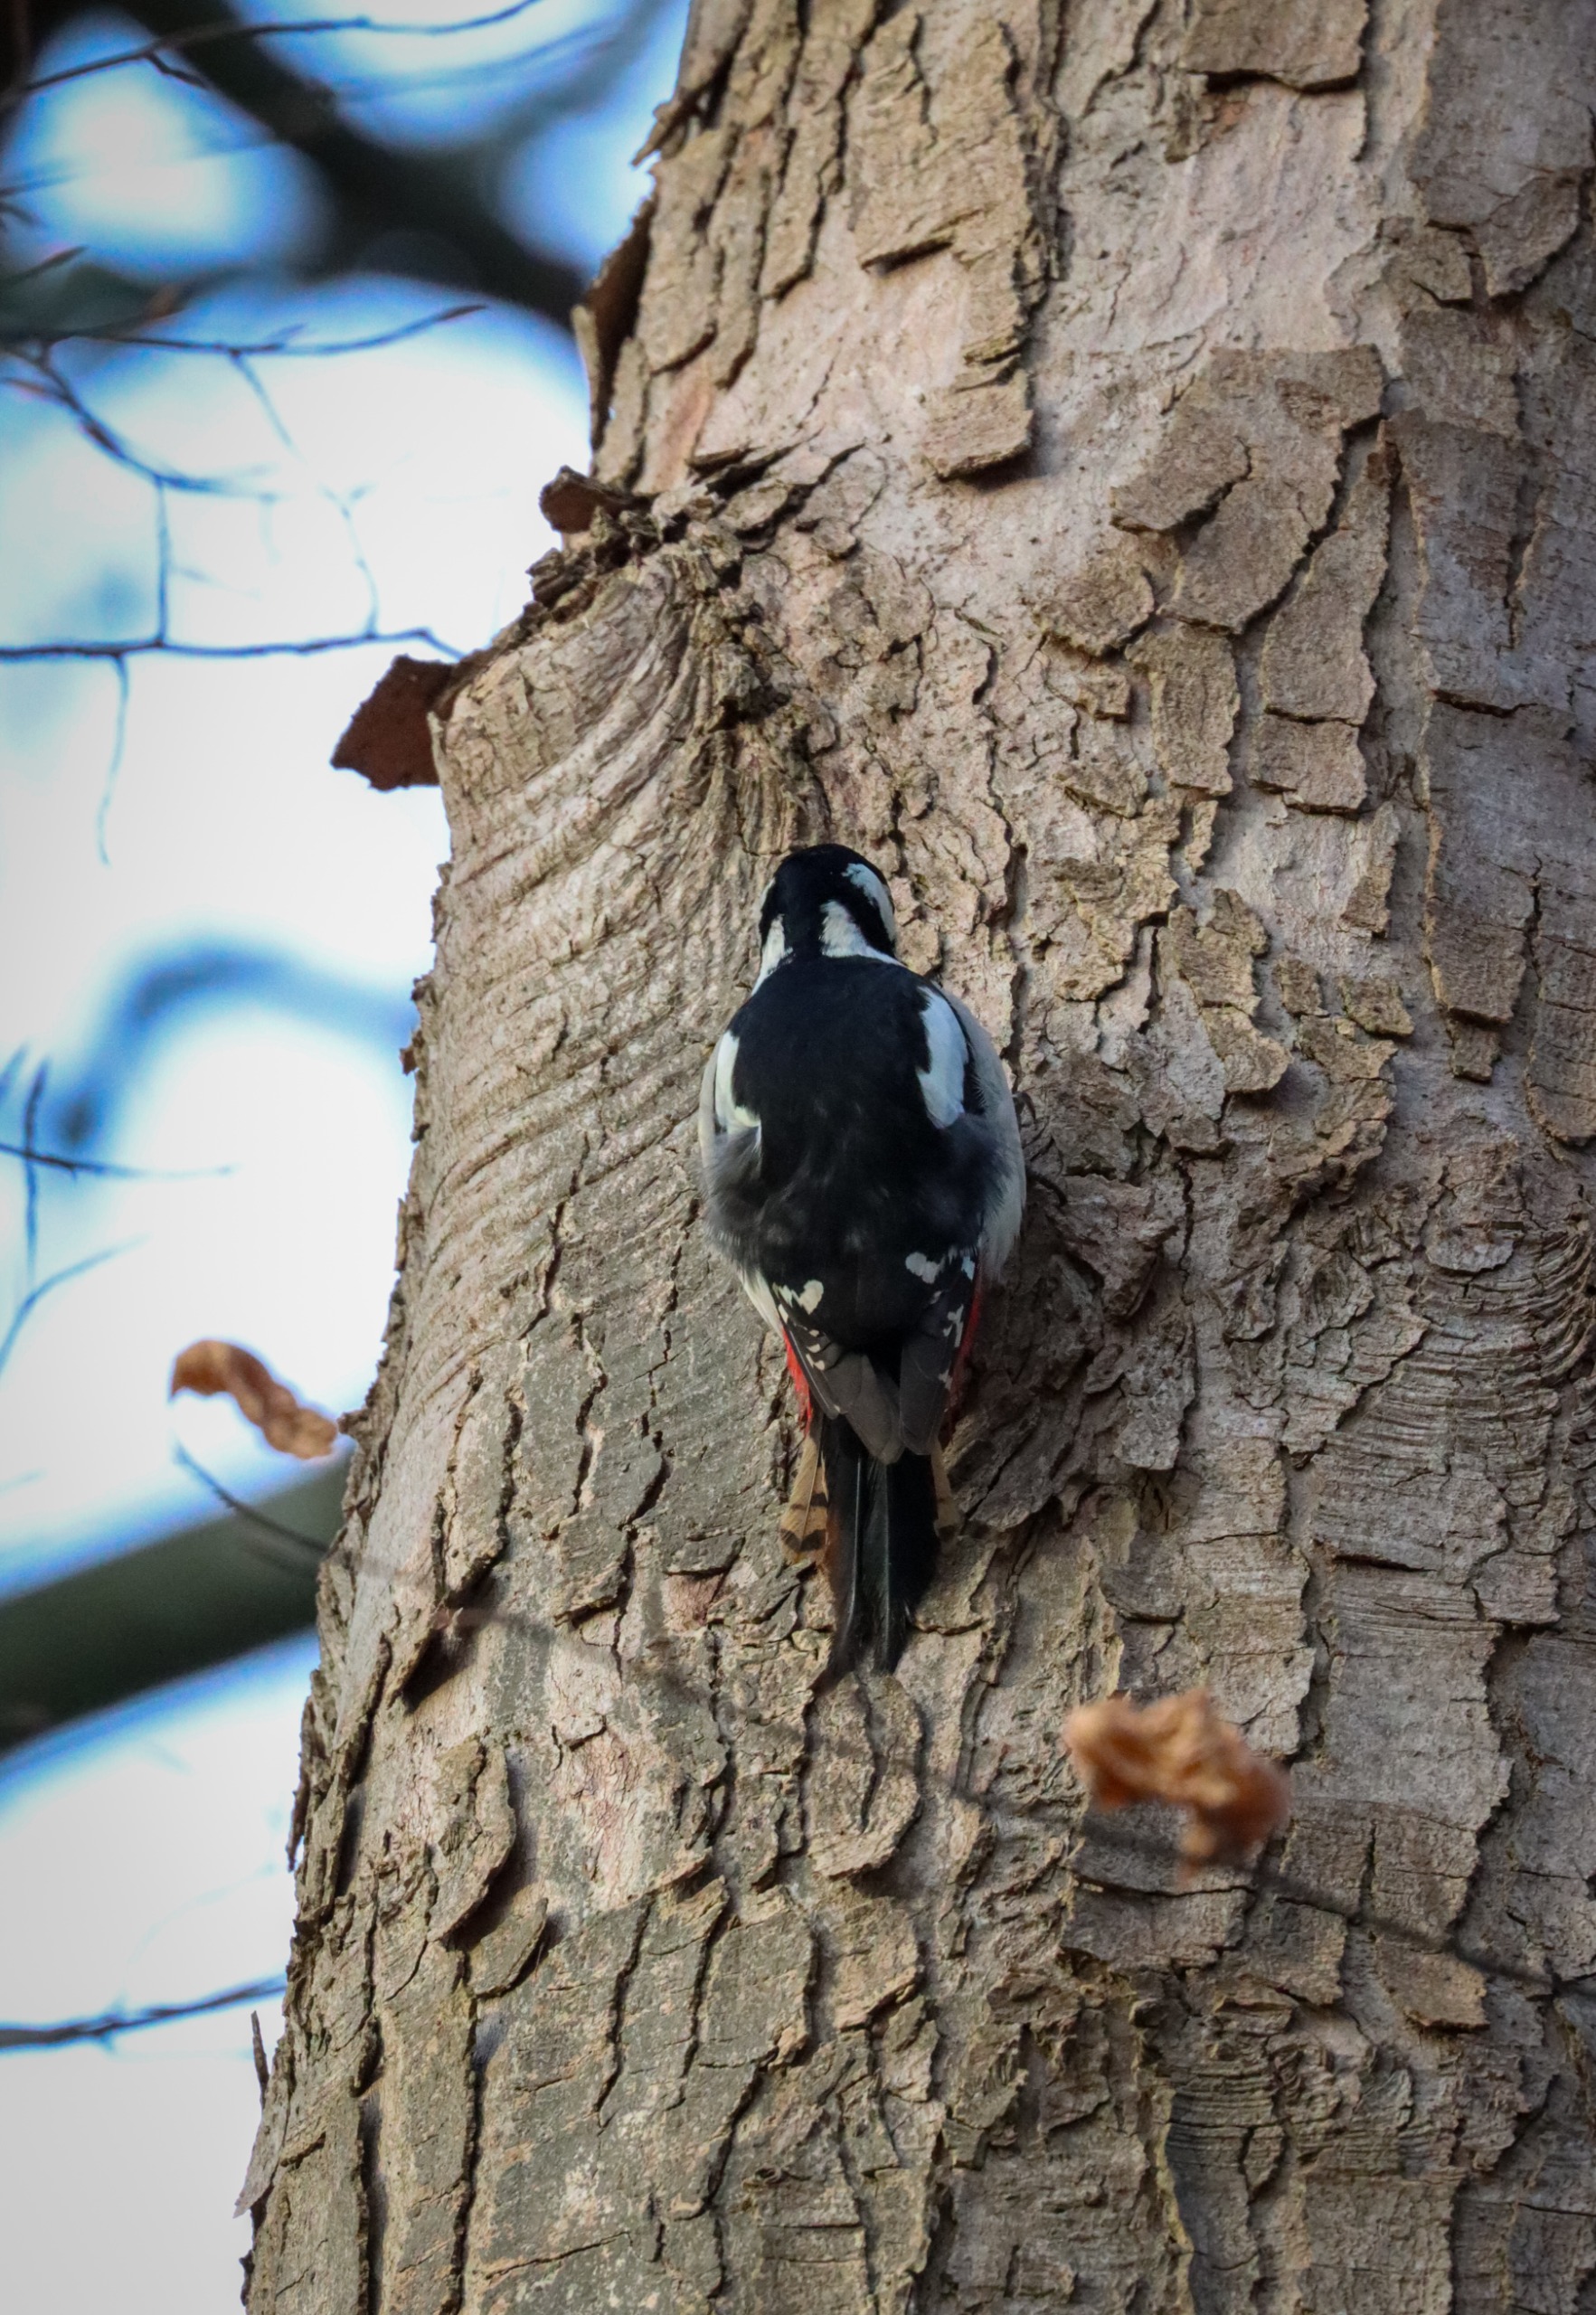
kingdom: Animalia
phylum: Chordata
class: Aves
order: Piciformes
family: Picidae
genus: Dendrocopos
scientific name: Dendrocopos major
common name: Stor flagspætte
